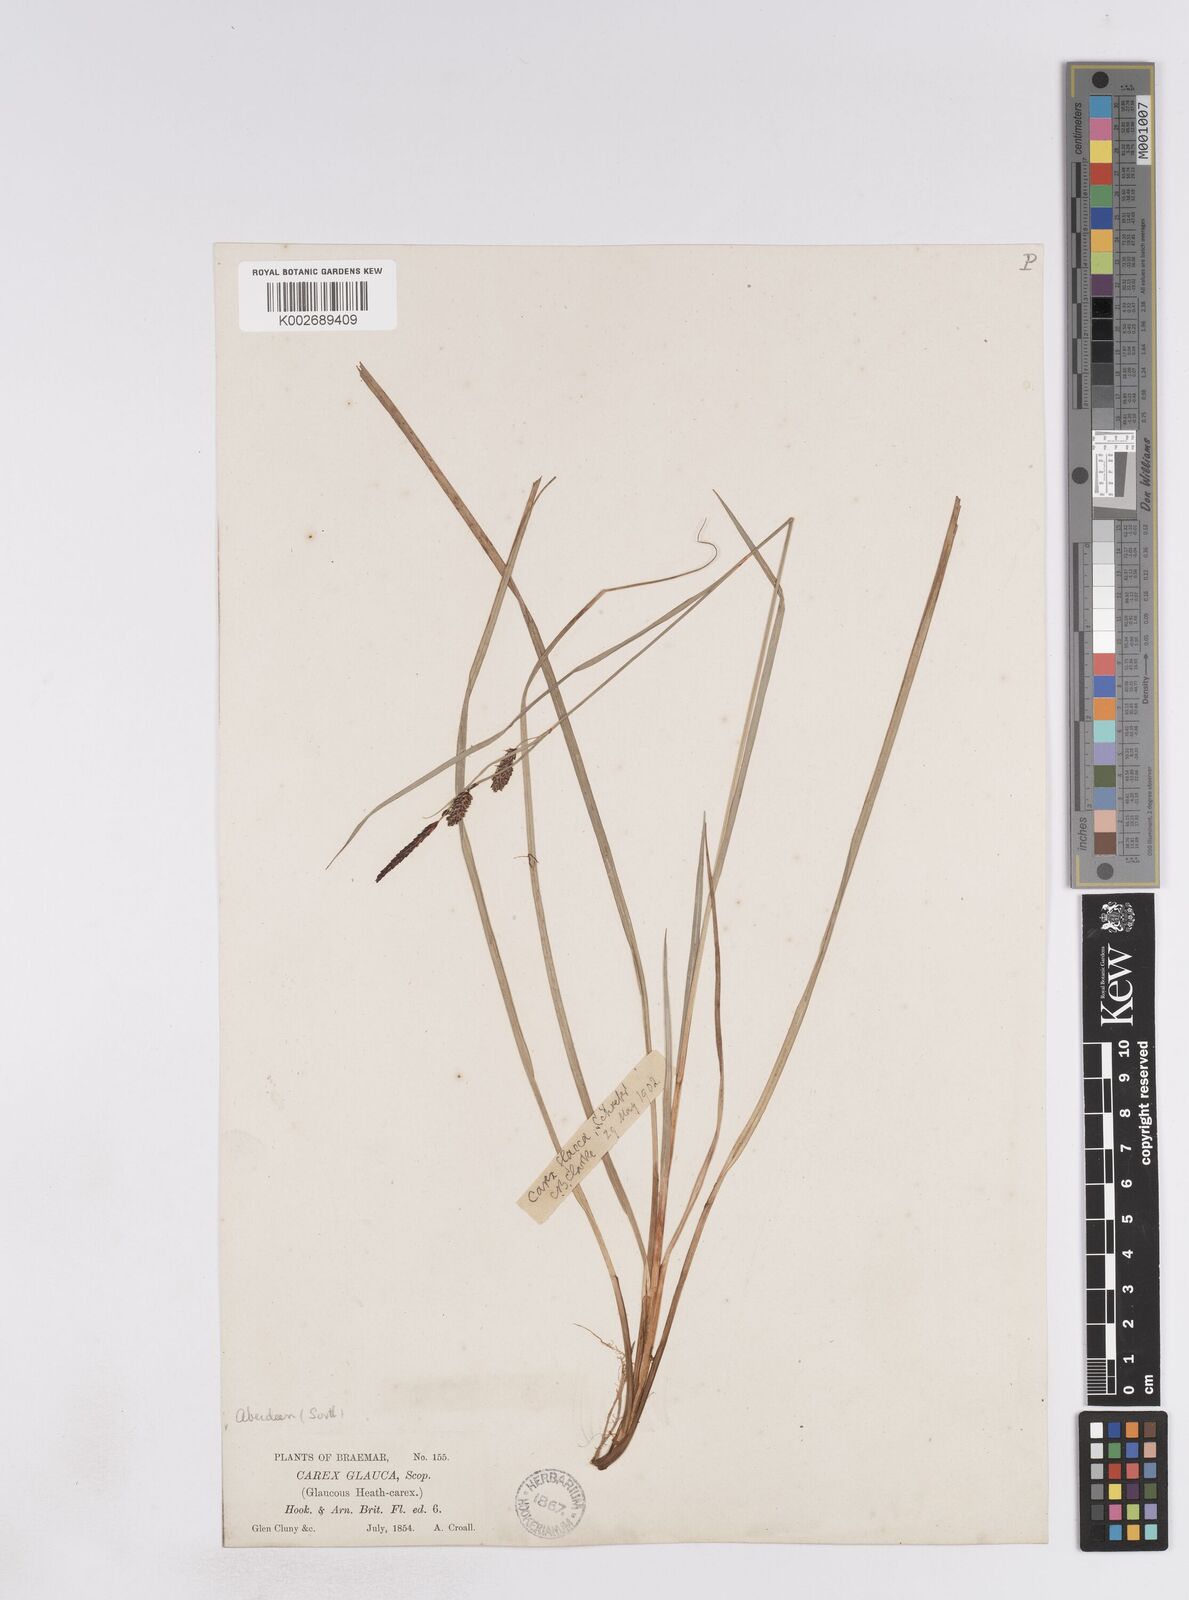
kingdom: Plantae
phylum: Tracheophyta
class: Liliopsida
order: Poales
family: Cyperaceae
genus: Carex
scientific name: Carex flacca
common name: Glaucous sedge
